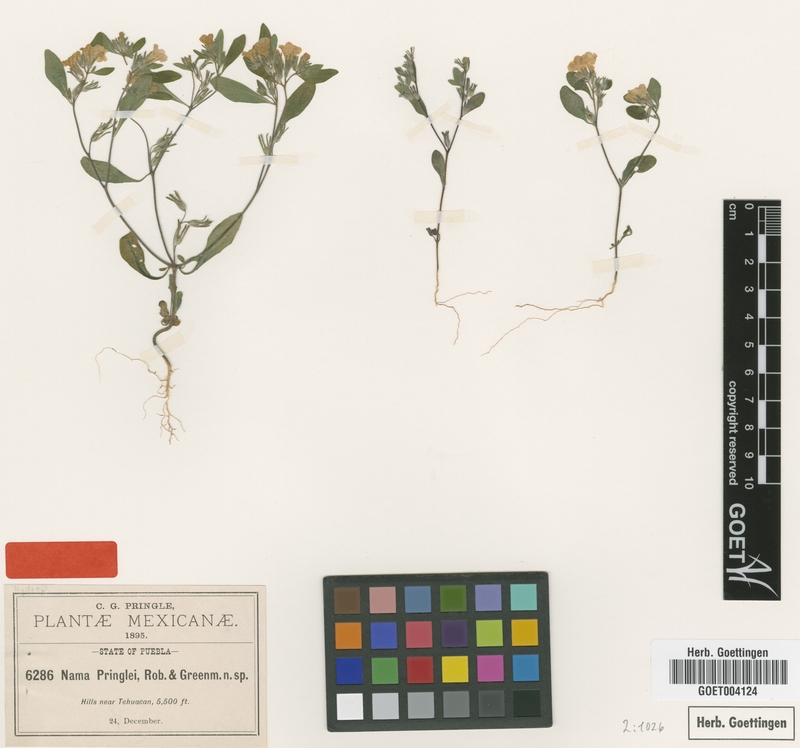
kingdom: Plantae
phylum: Tracheophyta
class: Magnoliopsida
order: Boraginales
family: Namaceae
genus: Nama
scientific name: Nama coulteri
